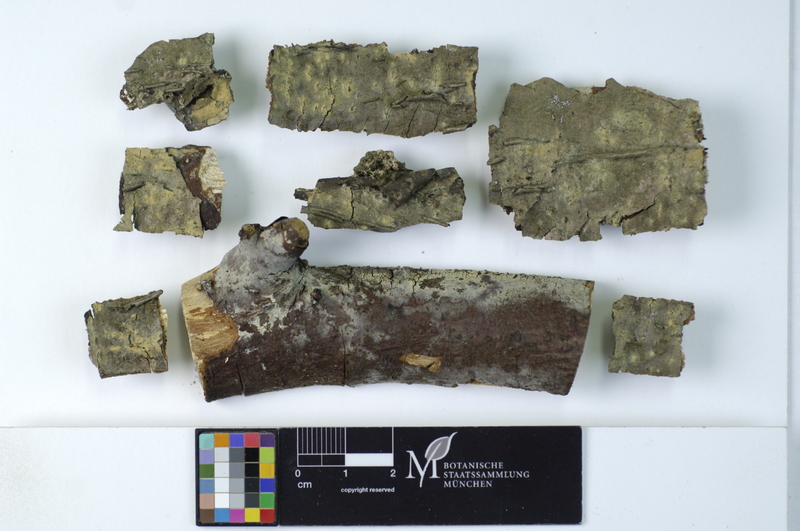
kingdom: Plantae
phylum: Tracheophyta
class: Magnoliopsida
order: Fagales
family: Betulaceae
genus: Corylus
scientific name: Corylus
